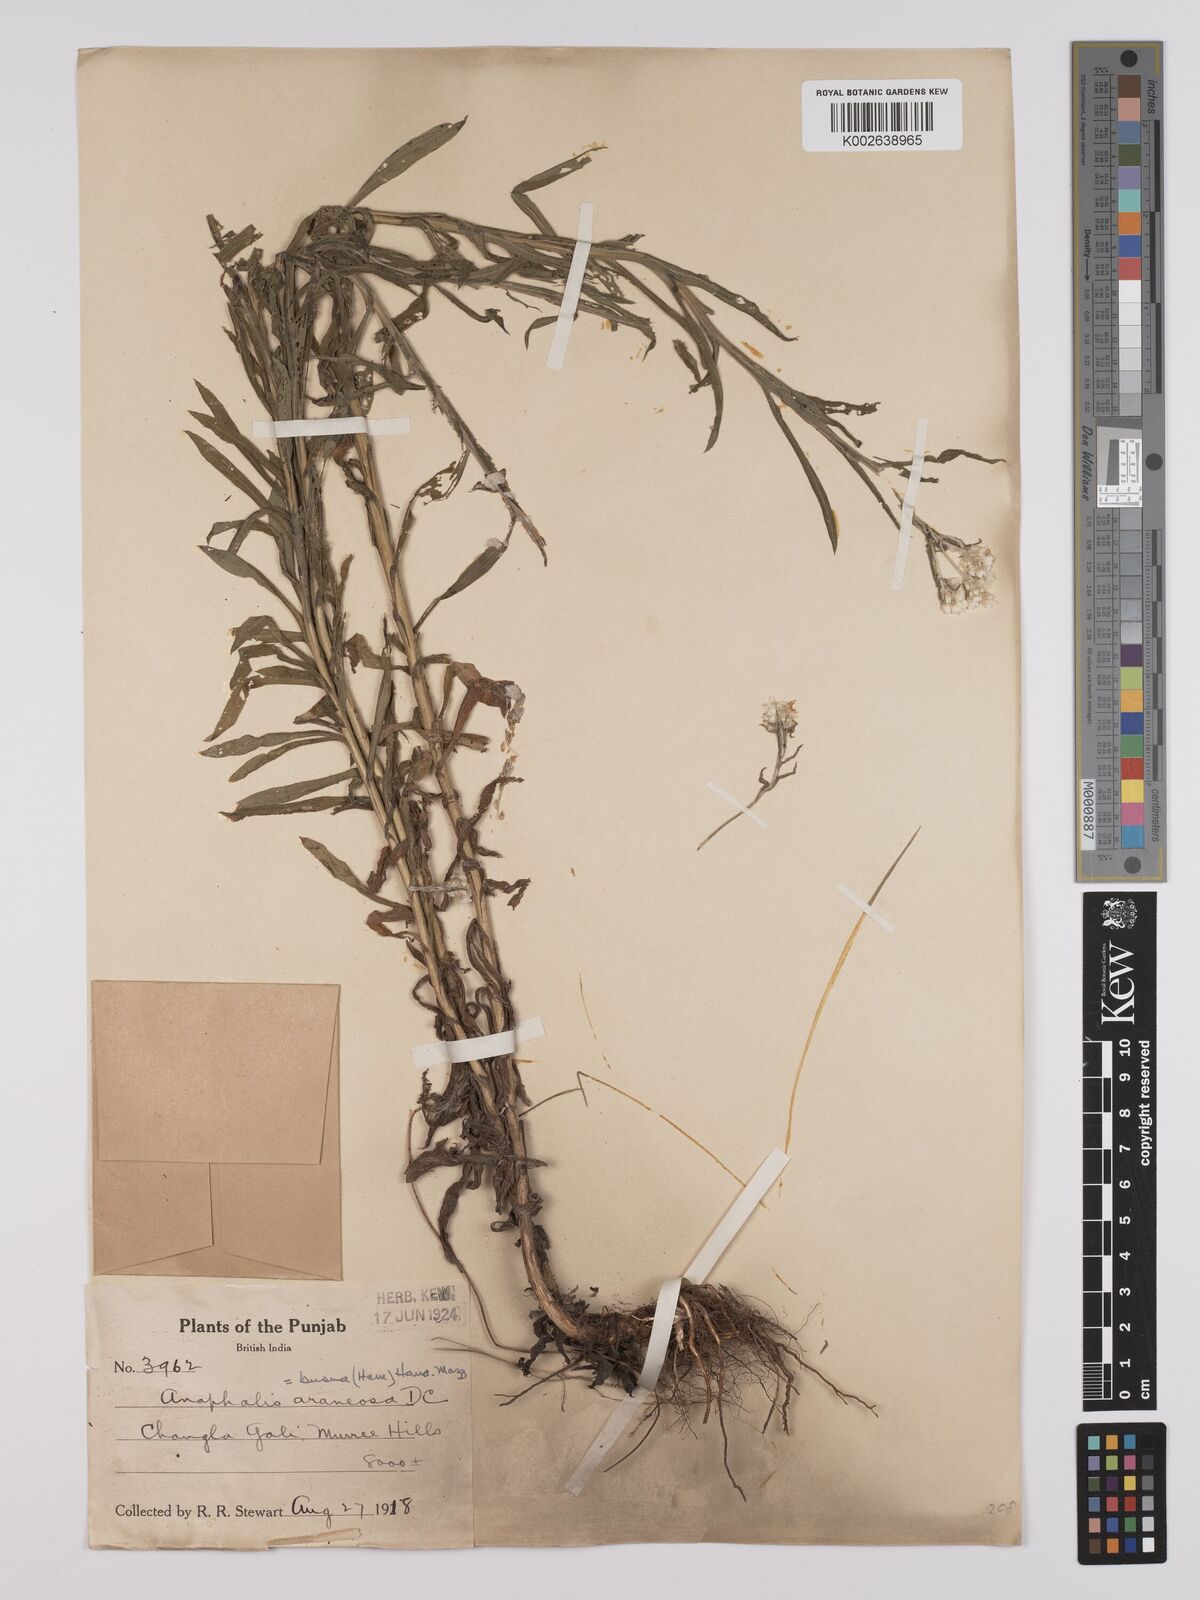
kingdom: Plantae
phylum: Tracheophyta
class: Magnoliopsida
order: Asterales
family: Asteraceae
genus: Anaphalis
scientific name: Anaphalis busua
